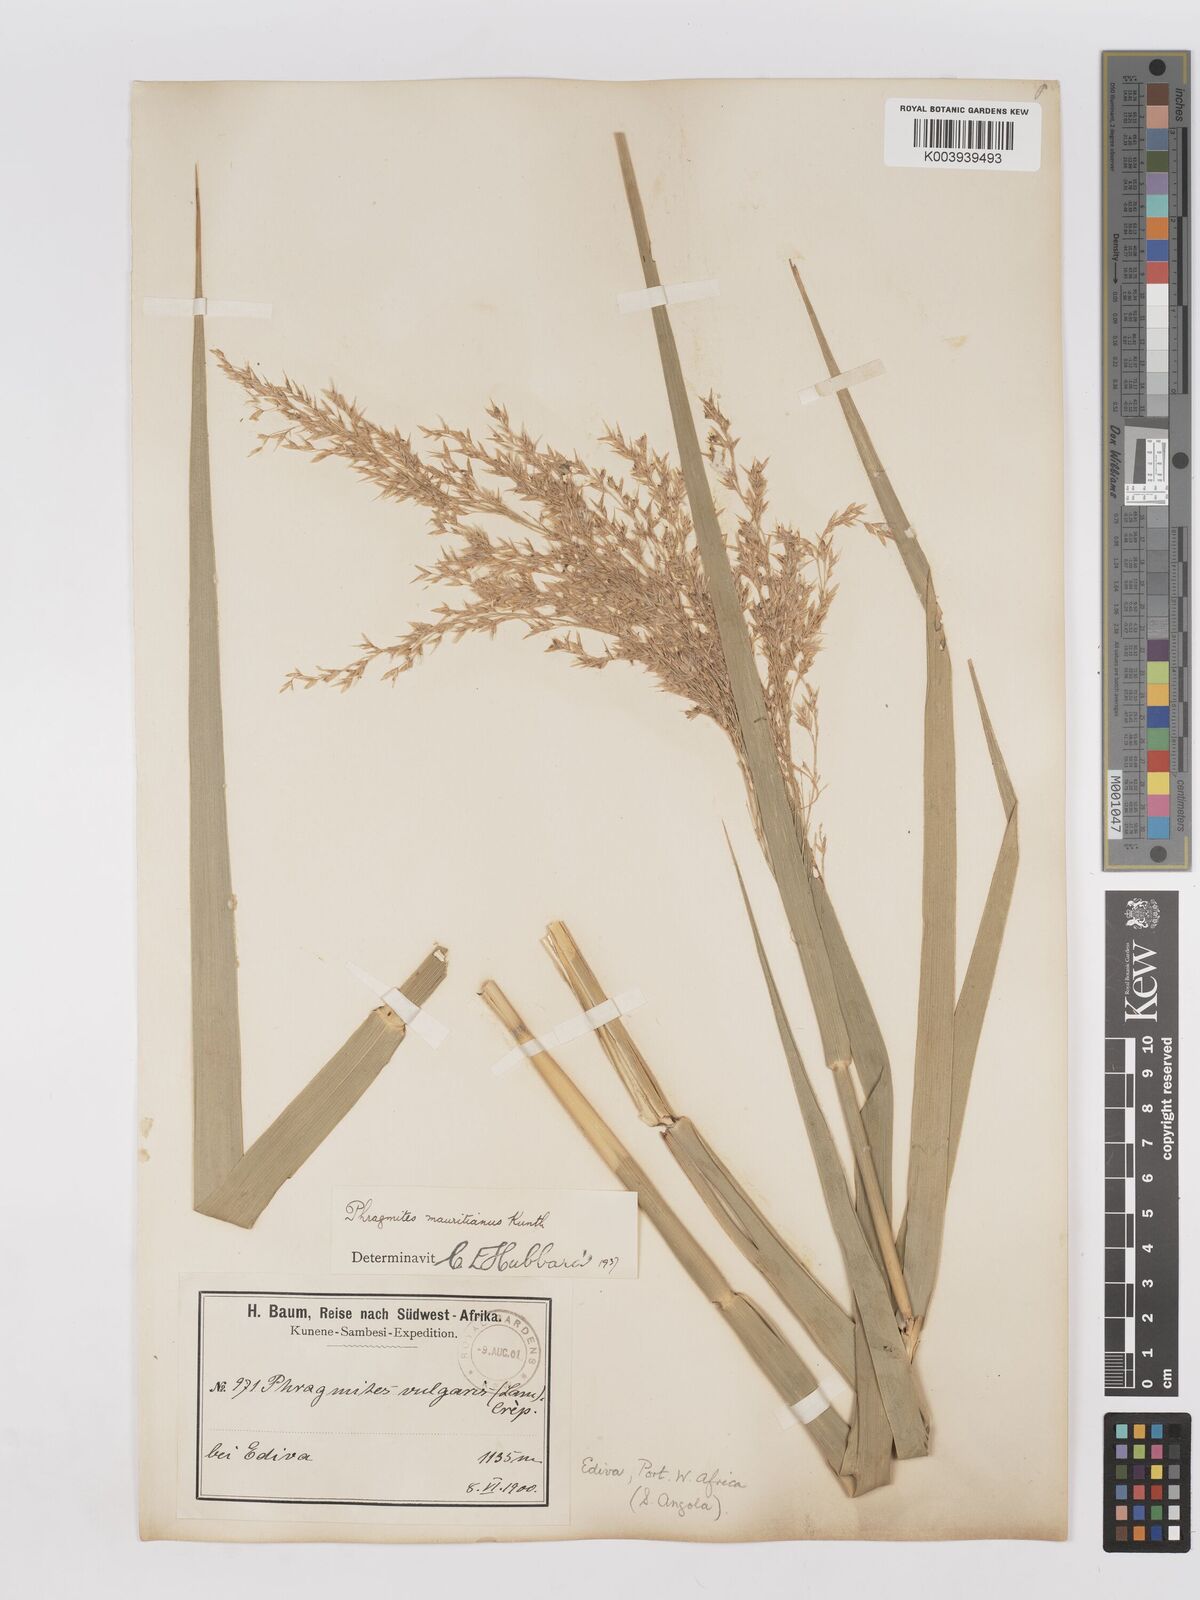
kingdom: Plantae
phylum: Tracheophyta
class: Liliopsida
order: Poales
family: Poaceae
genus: Phragmites
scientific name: Phragmites mauritianus
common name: Reed grass
